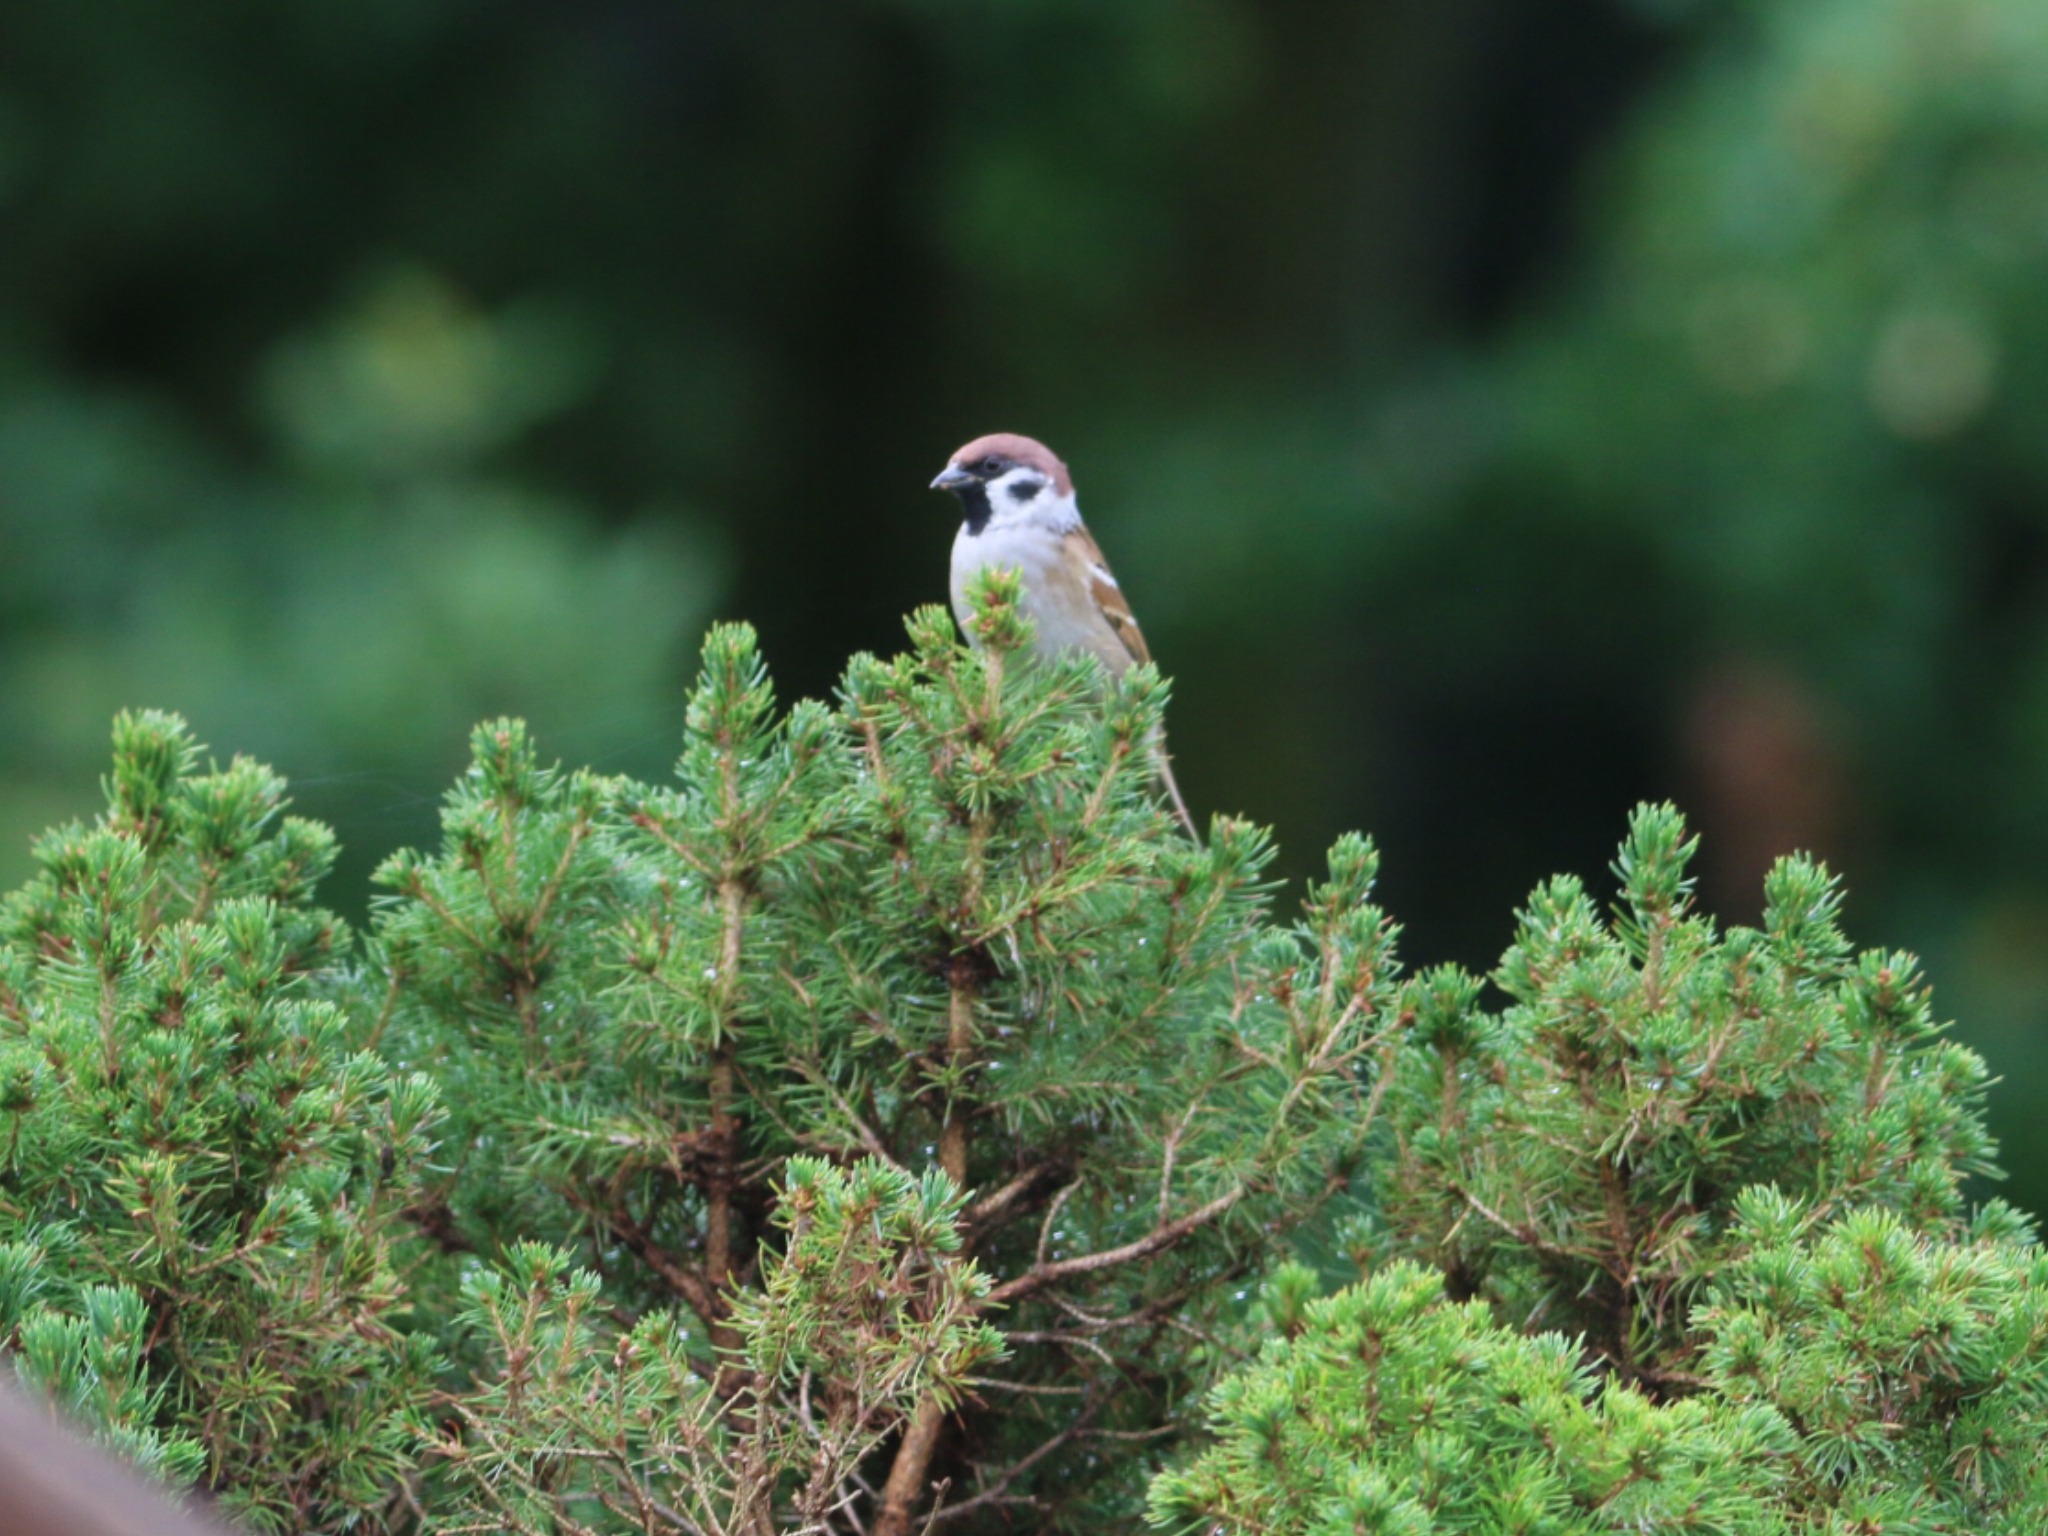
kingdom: Animalia
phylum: Chordata
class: Aves
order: Passeriformes
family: Passeridae
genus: Passer
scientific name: Passer montanus
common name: Skovspurv
